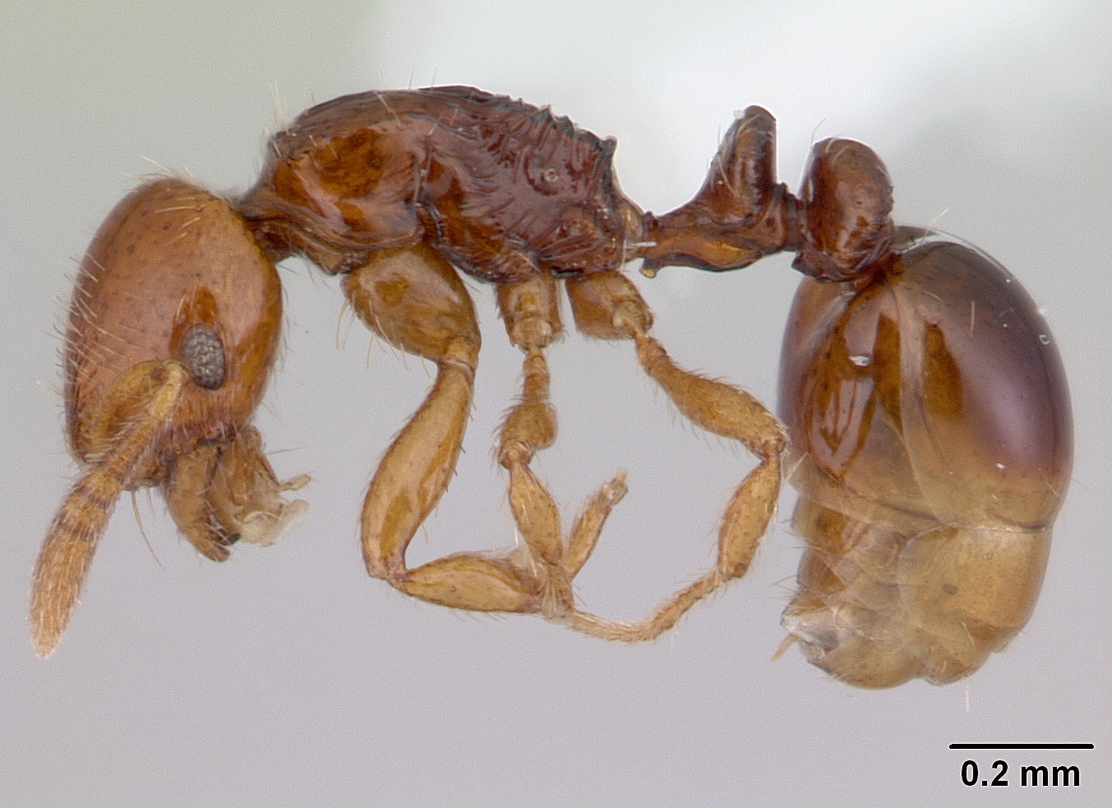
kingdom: Animalia
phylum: Arthropoda
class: Insecta
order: Hymenoptera
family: Formicidae
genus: Oxyepoecus
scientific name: Oxyepoecus vezenyii
